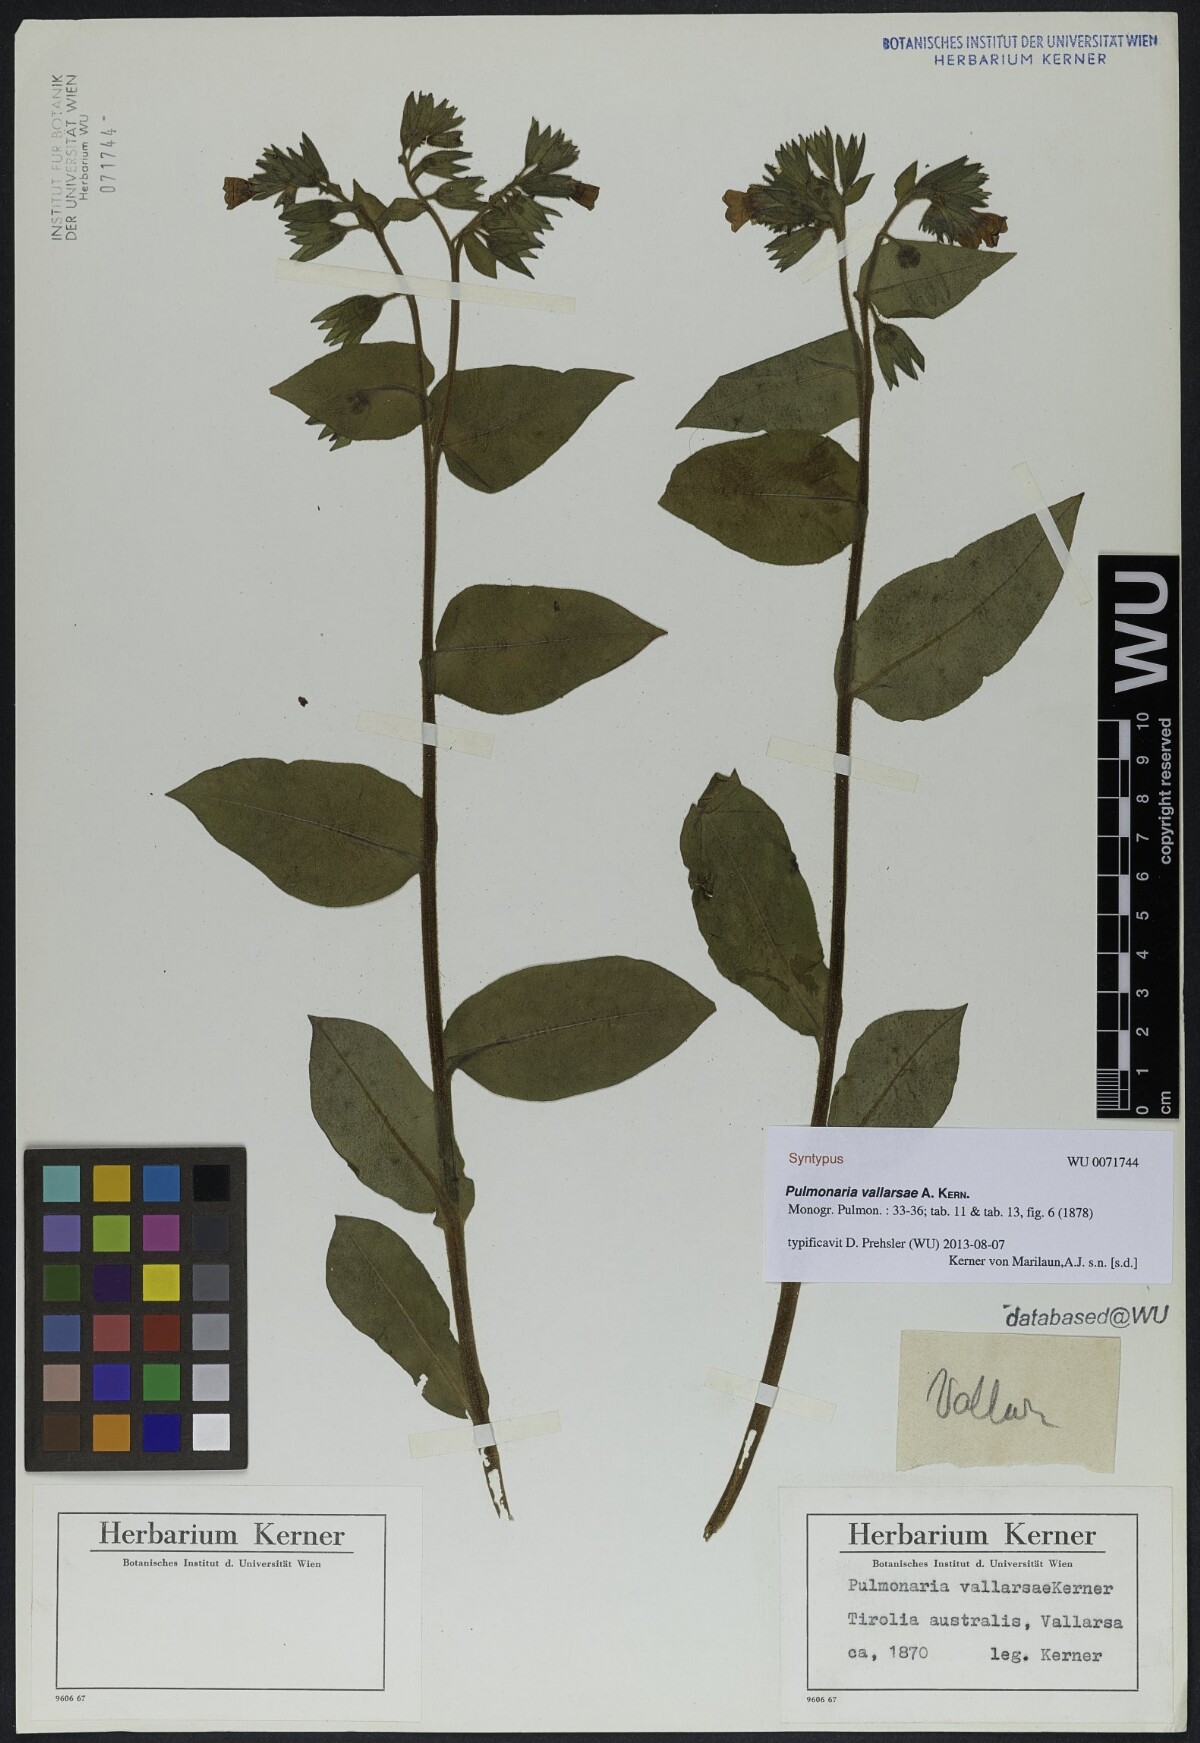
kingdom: Plantae
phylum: Tracheophyta
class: Magnoliopsida
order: Boraginales
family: Boraginaceae
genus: Pulmonaria
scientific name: Pulmonaria hirta
